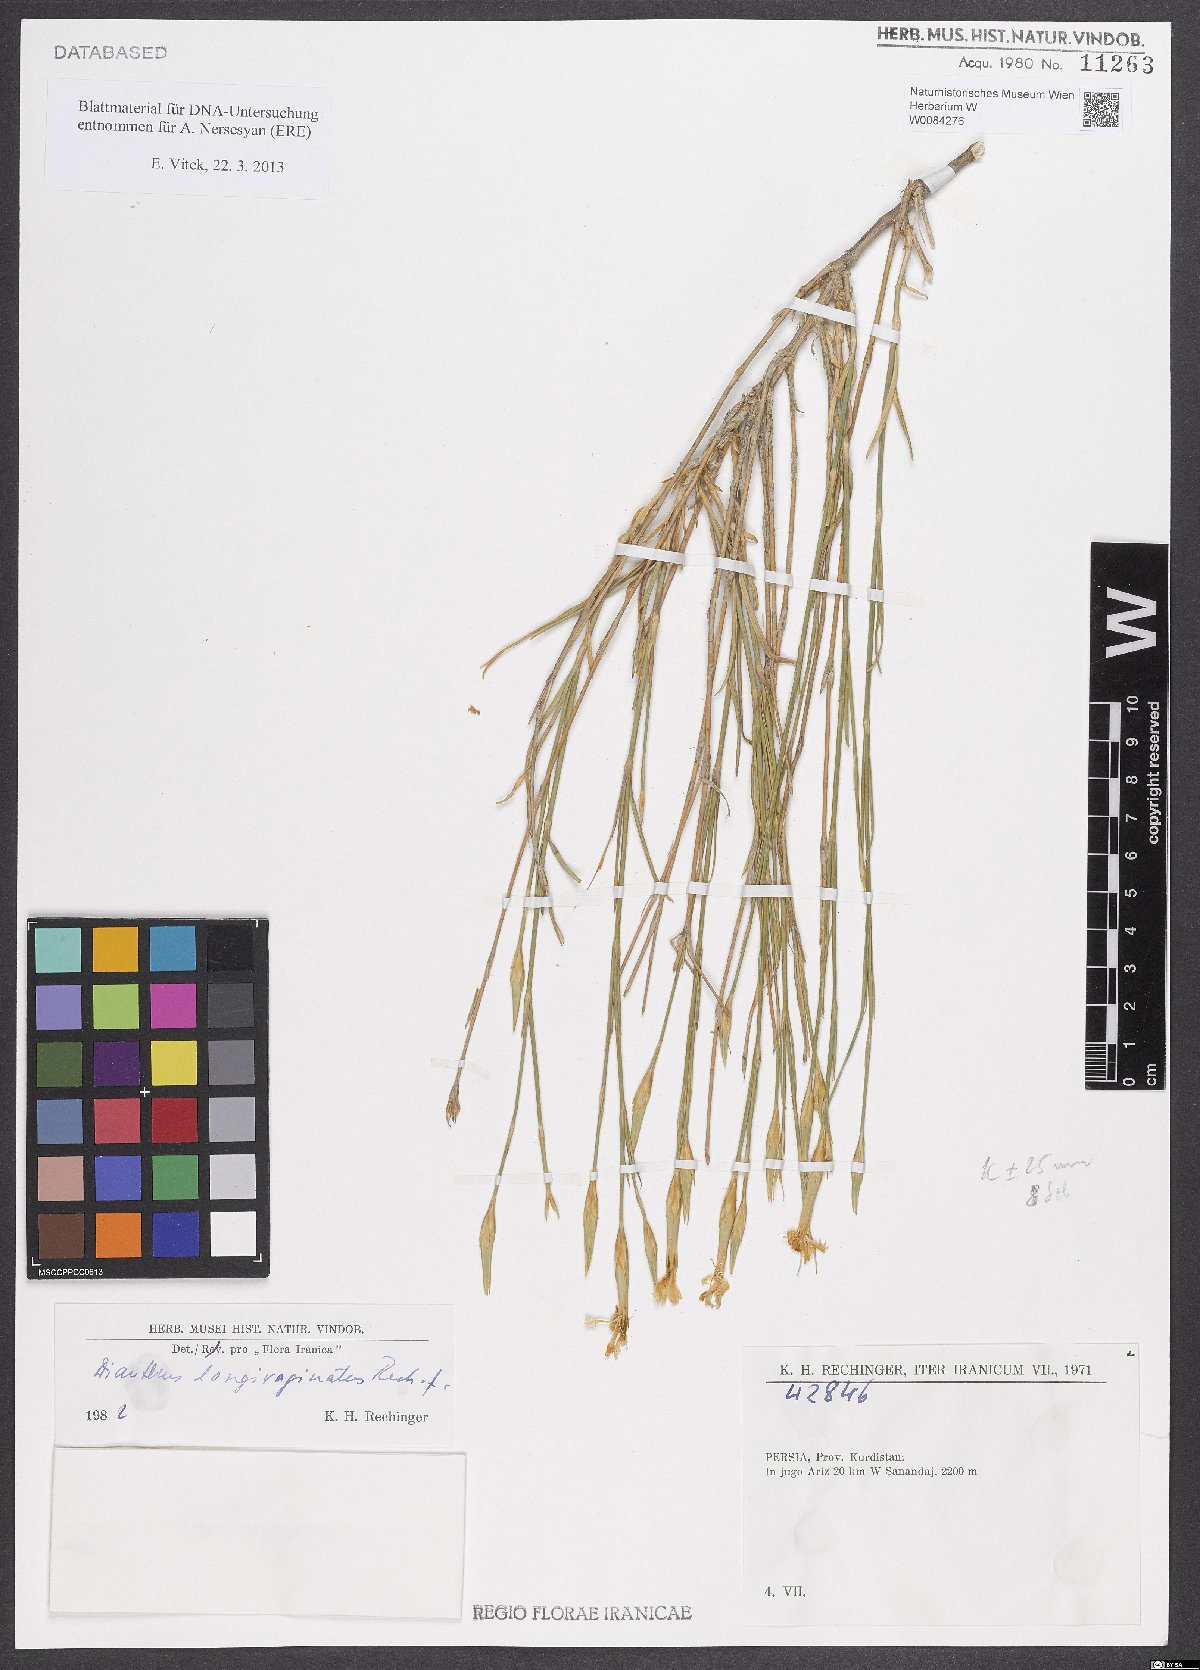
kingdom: Plantae
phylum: Tracheophyta
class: Magnoliopsida
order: Caryophyllales
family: Caryophyllaceae
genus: Dianthus
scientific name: Dianthus longivaginatus
